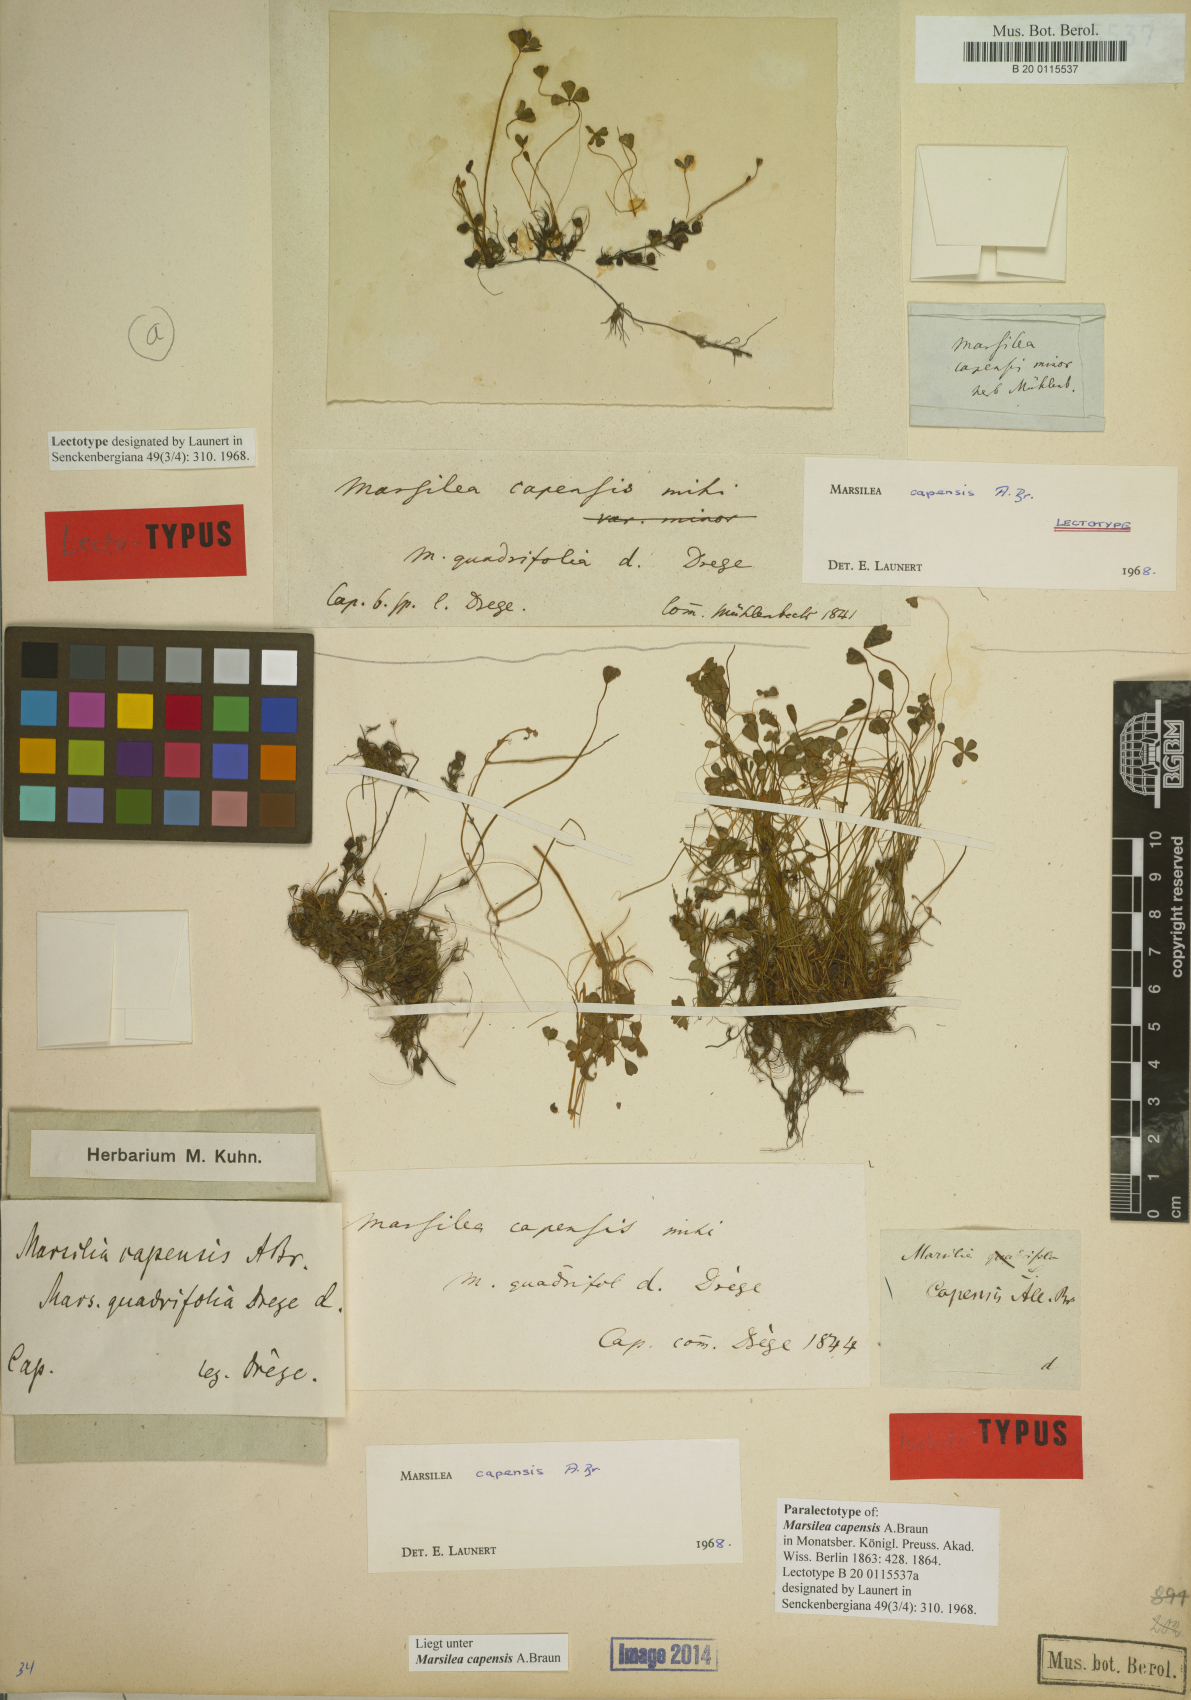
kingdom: Plantae
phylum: Tracheophyta
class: Polypodiopsida
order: Salviniales
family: Marsileaceae
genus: Marsilea
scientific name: Marsilea capensis
